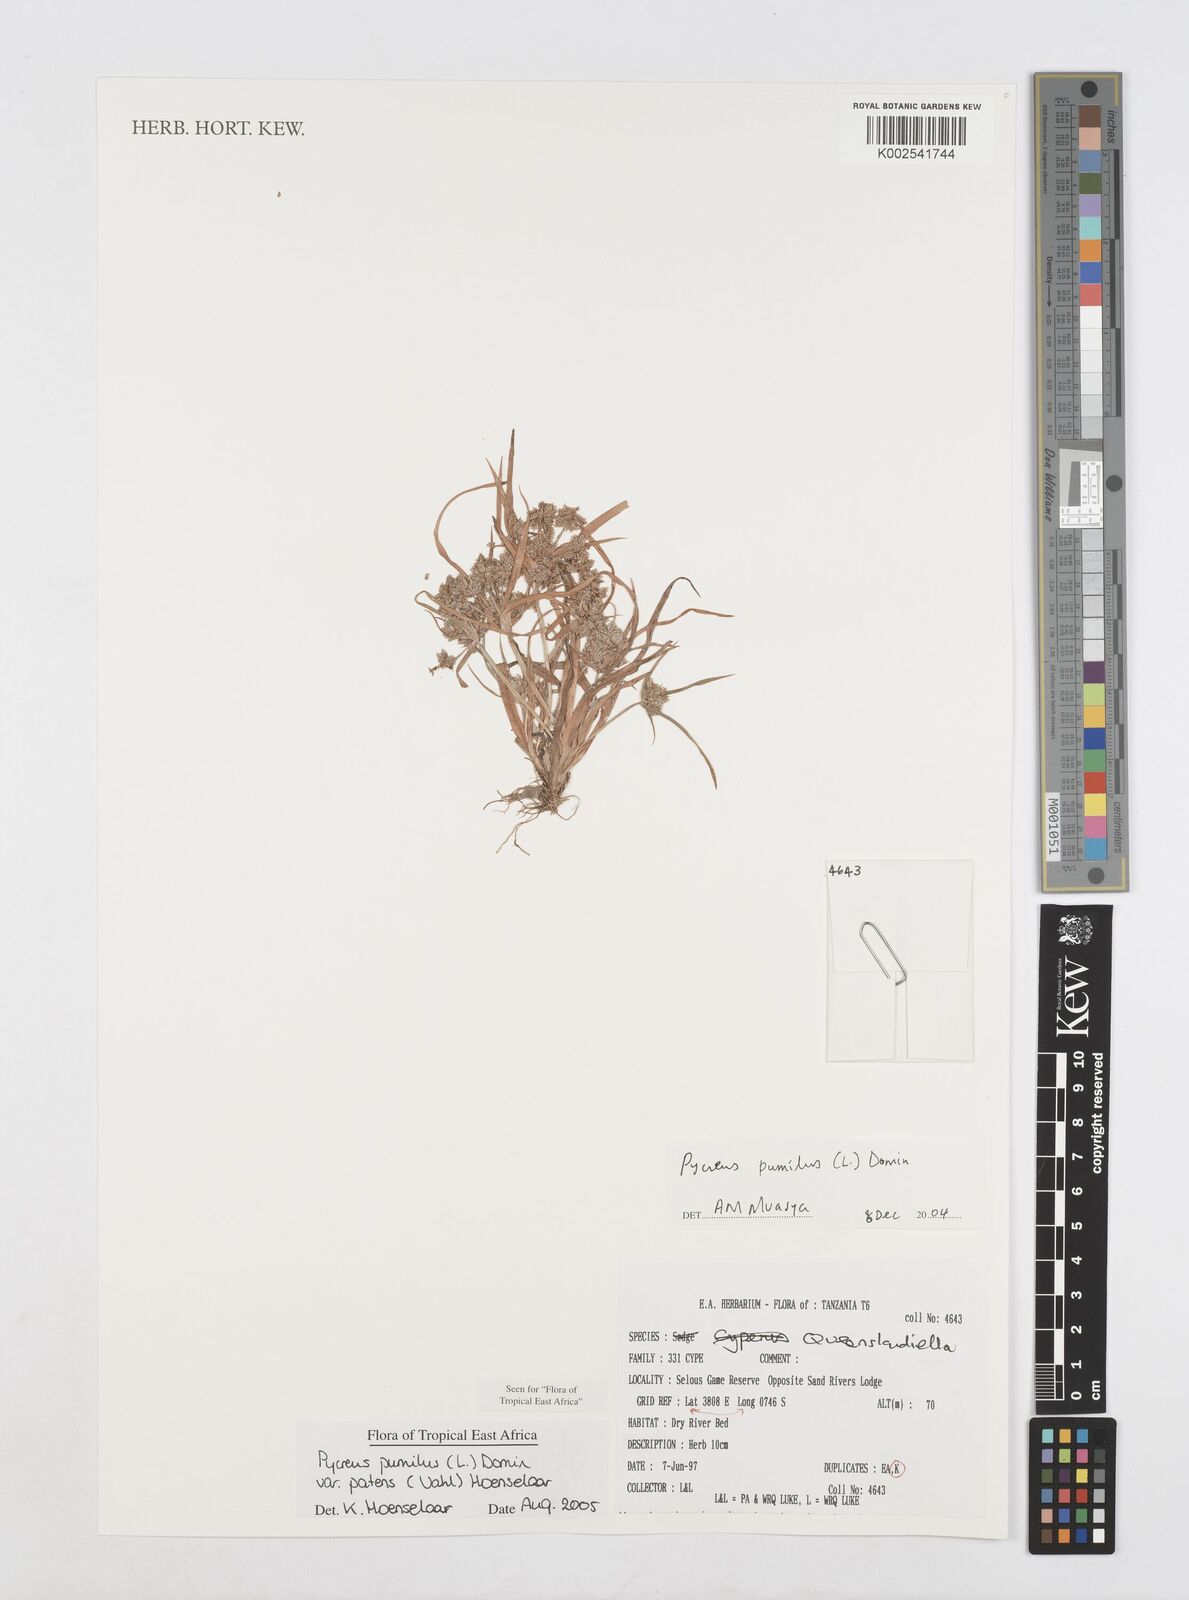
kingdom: Plantae
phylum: Tracheophyta
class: Liliopsida
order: Poales
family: Cyperaceae
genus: Cyperus
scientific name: Cyperus pumilus
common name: Low flatsedge
